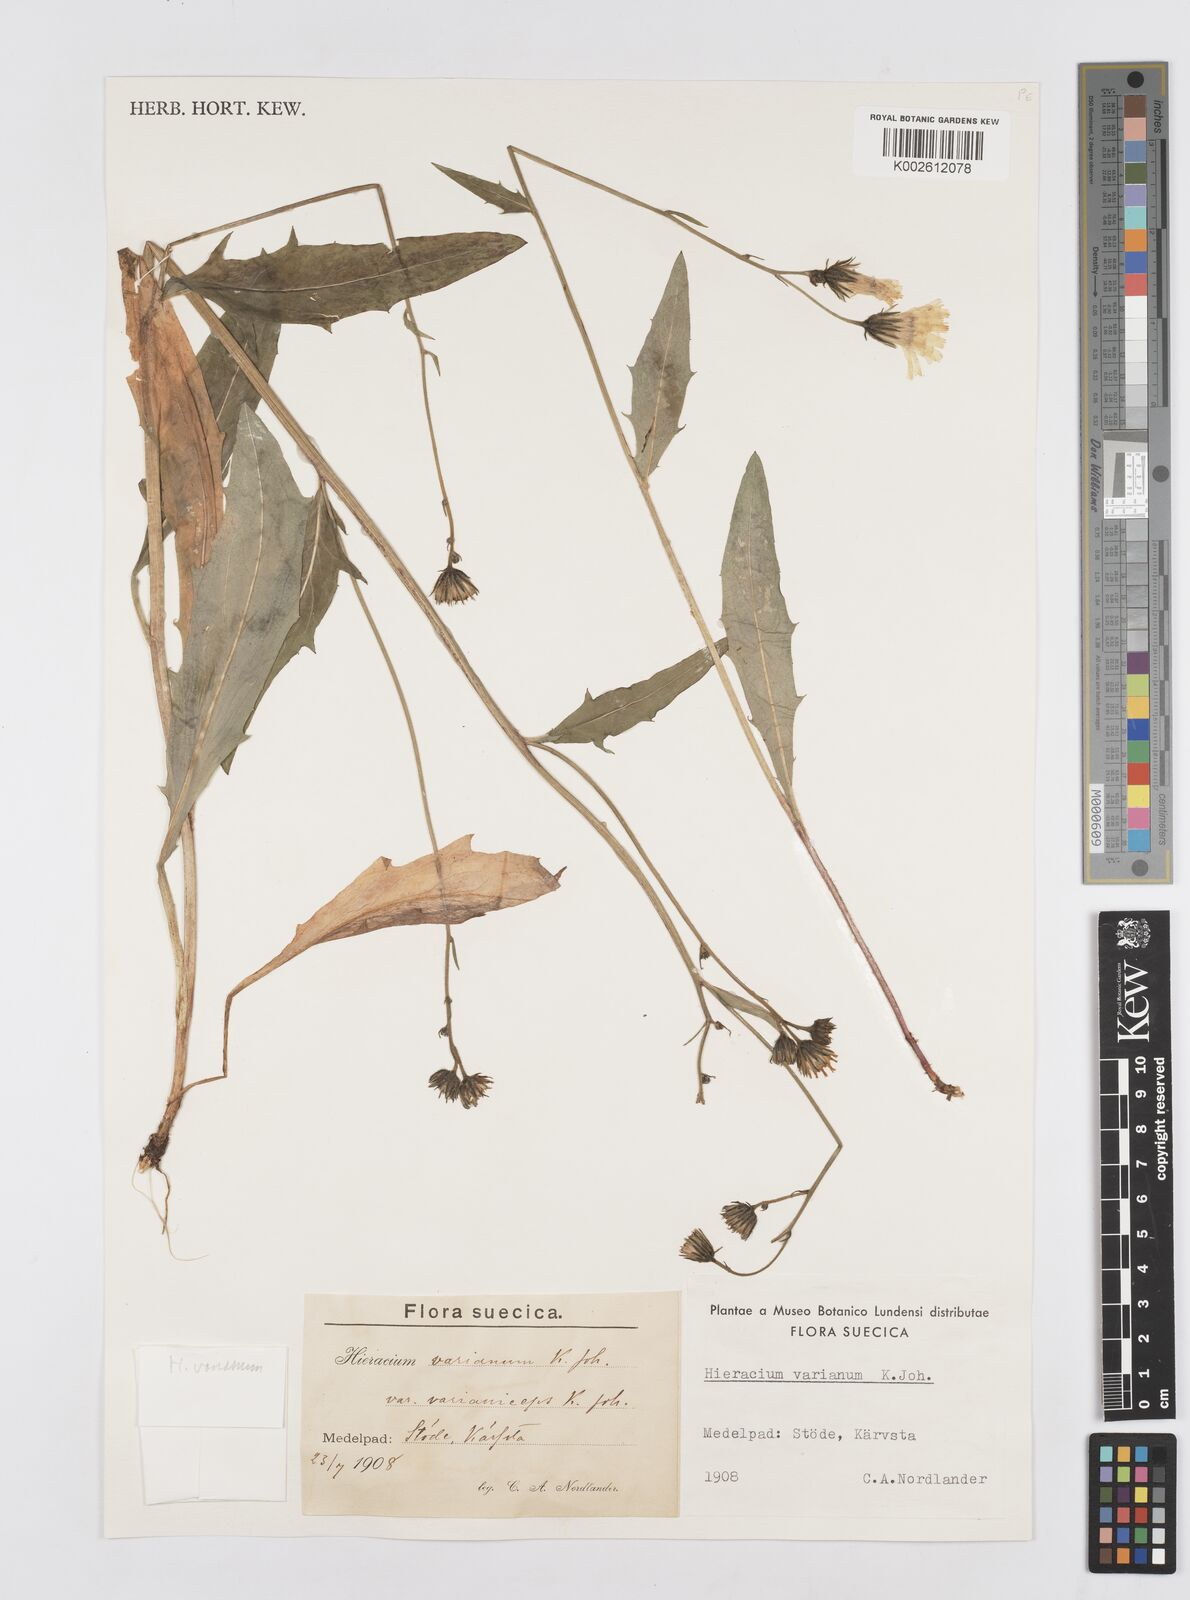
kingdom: Plantae
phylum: Tracheophyta
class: Magnoliopsida
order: Asterales
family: Asteraceae
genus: Hieracium
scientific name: Hieracium varianum
